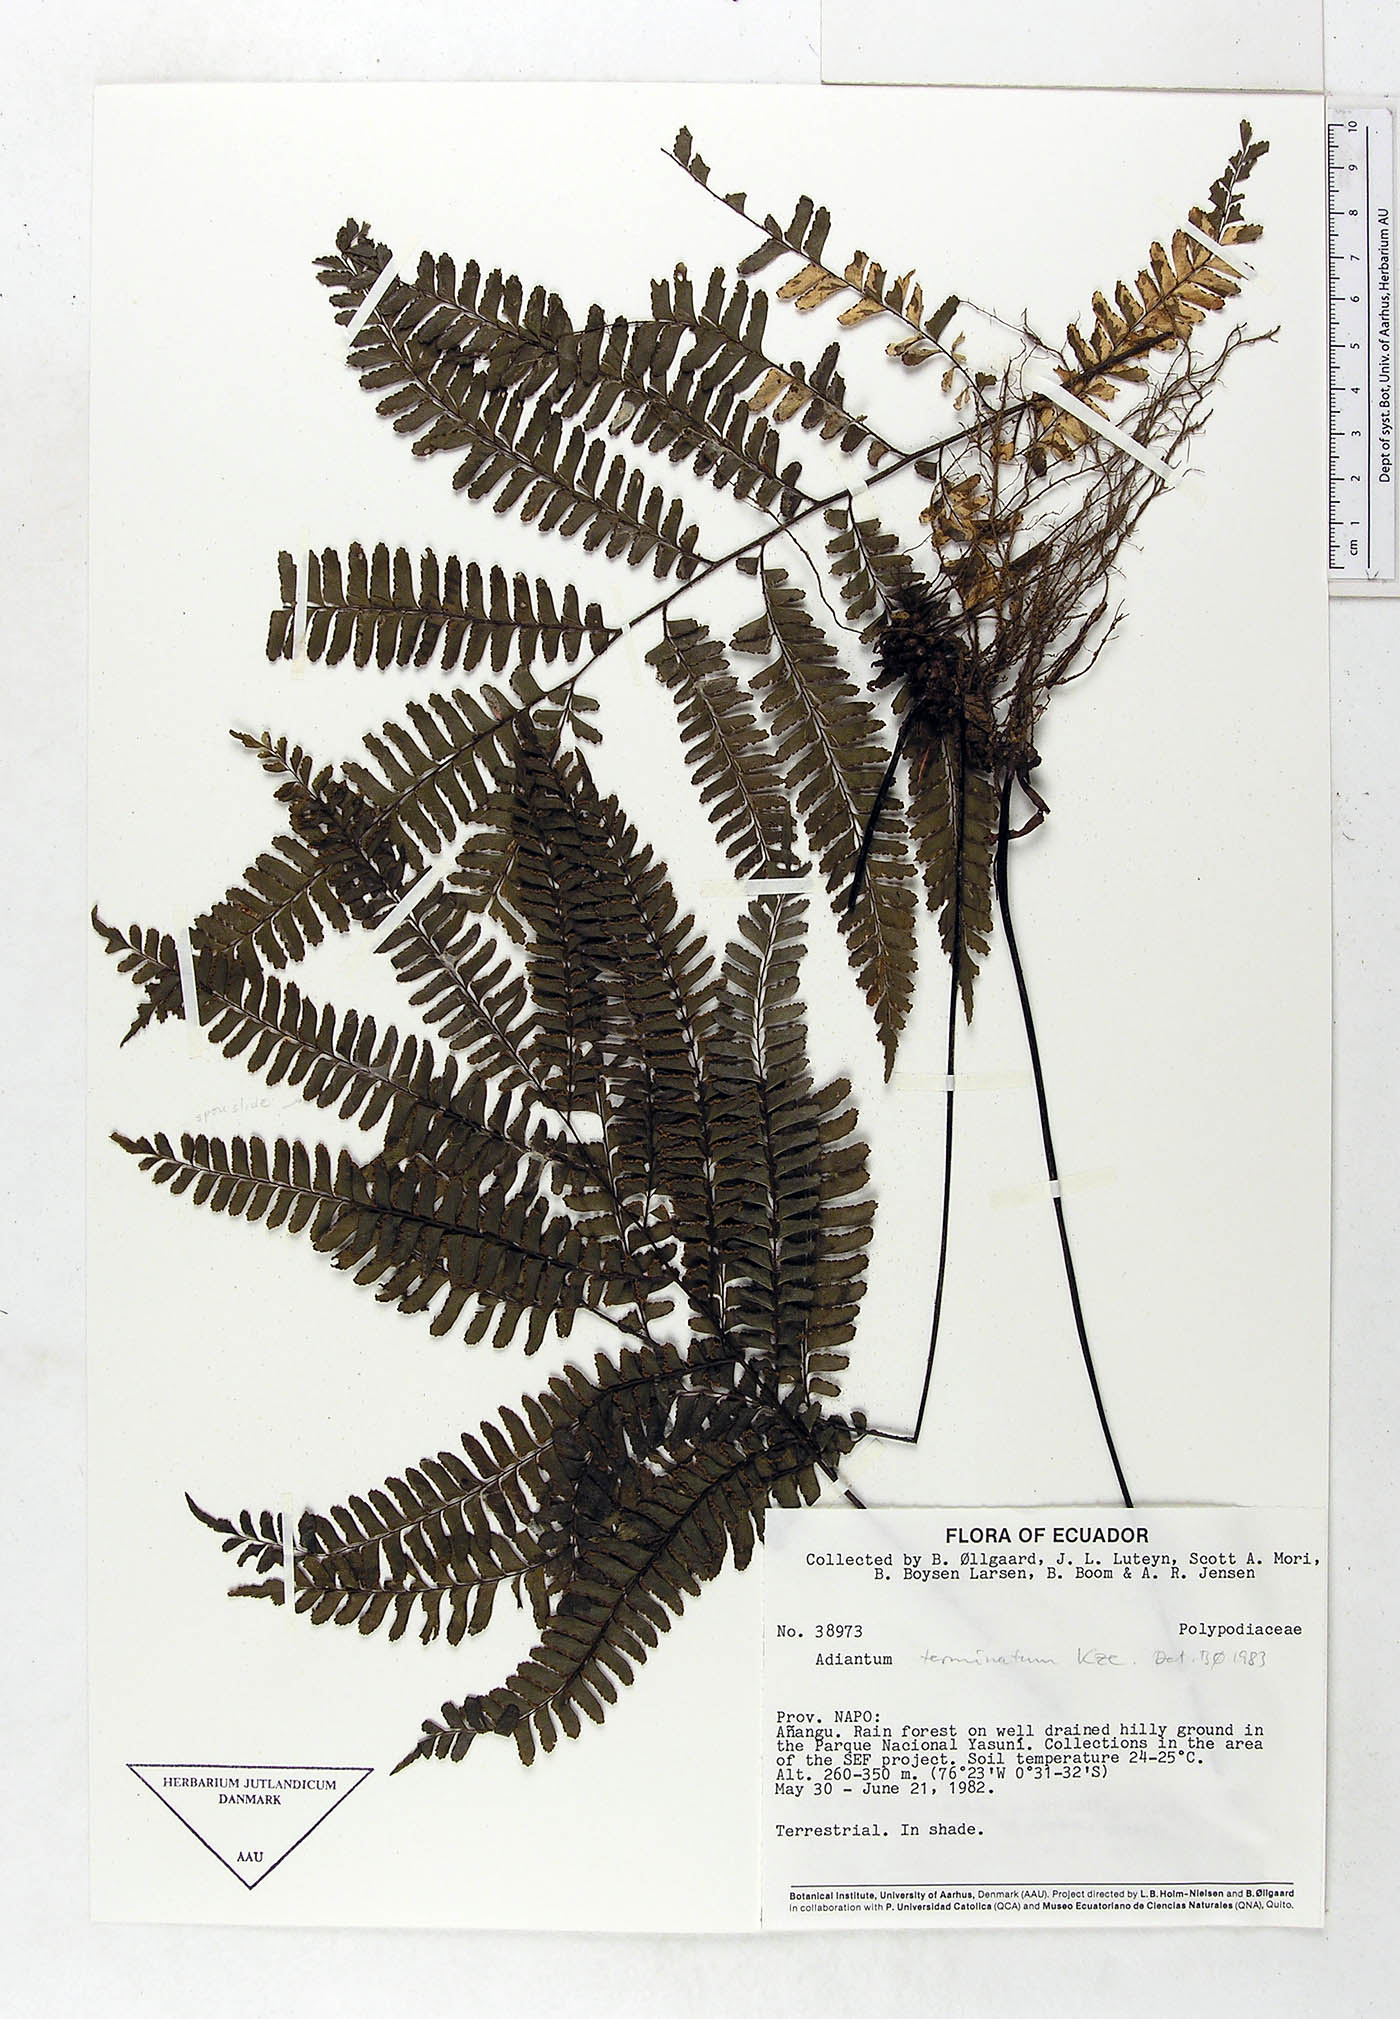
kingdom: Plantae
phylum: Tracheophyta
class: Polypodiopsida
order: Polypodiales
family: Pteridaceae
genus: Adiantum
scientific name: Adiantum terminatum
